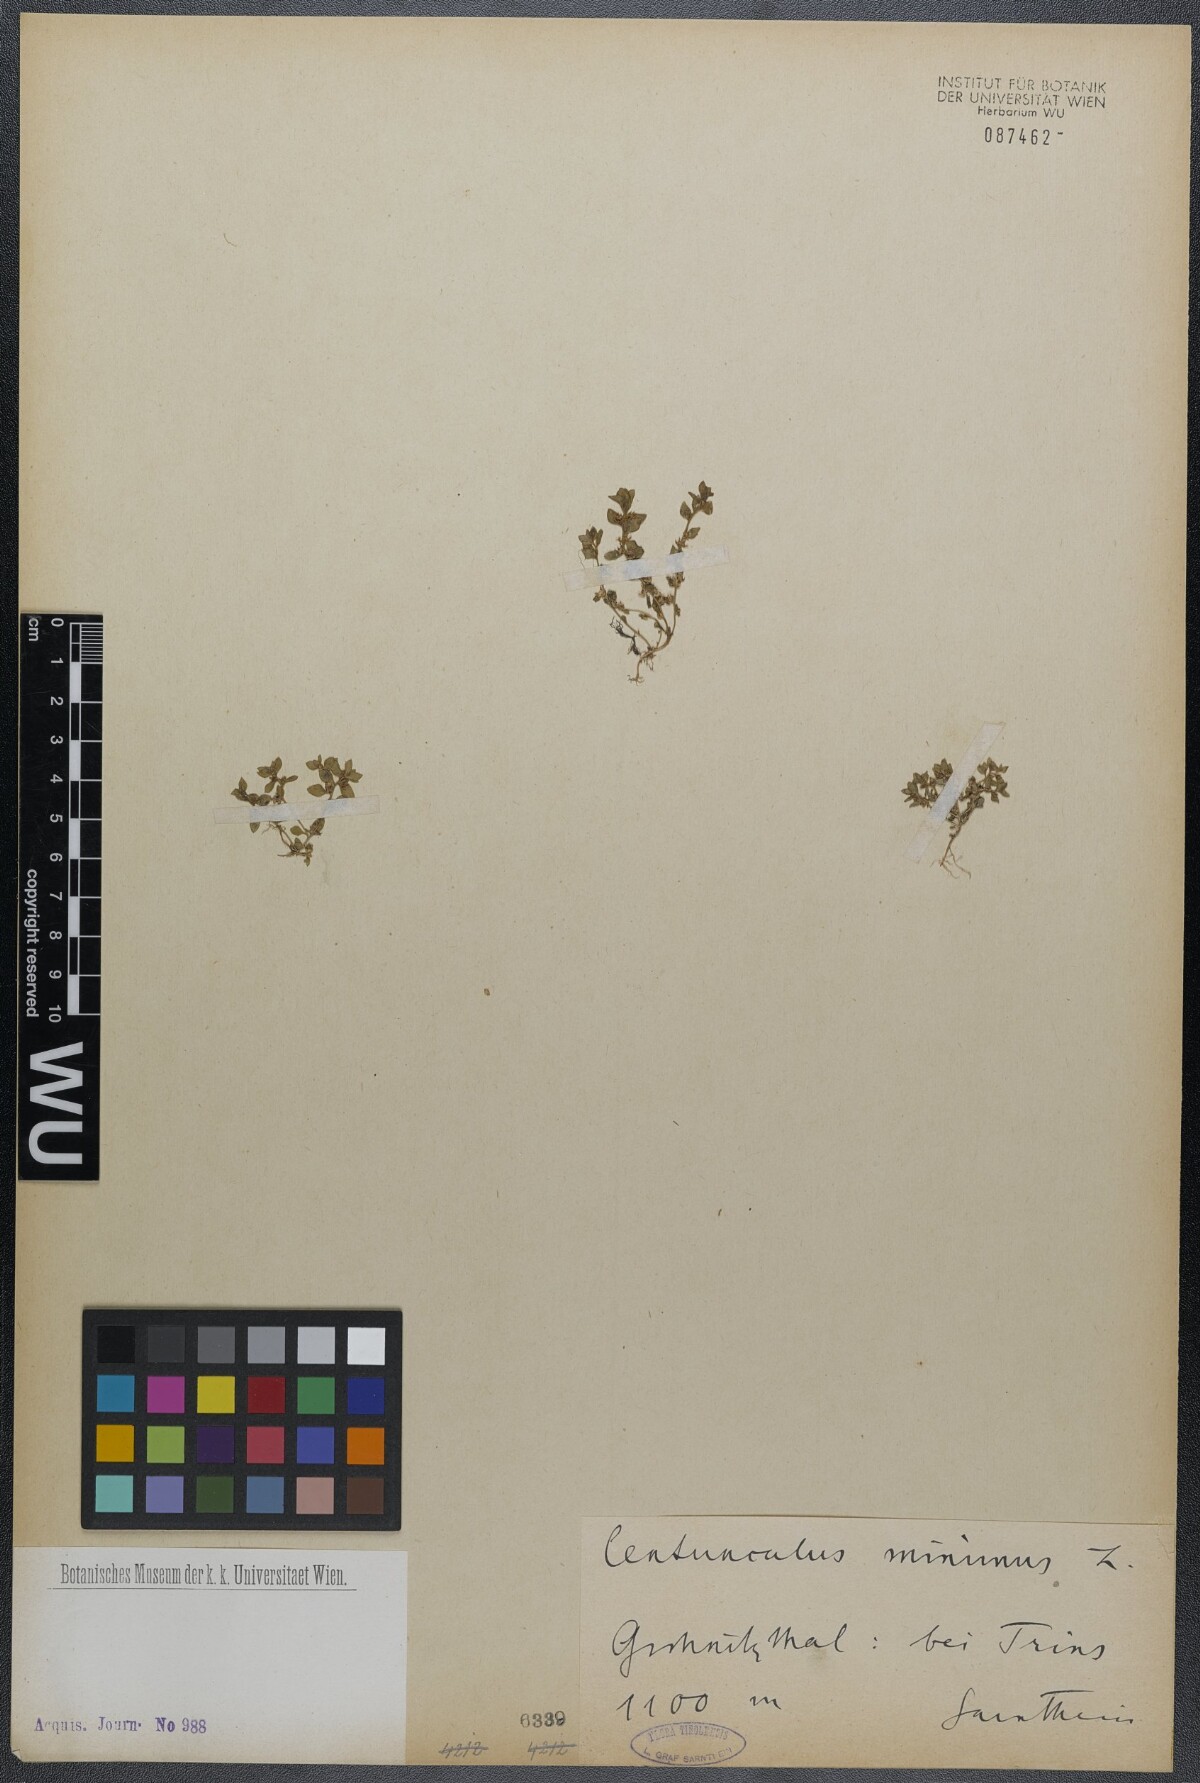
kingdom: Plantae
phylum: Tracheophyta
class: Magnoliopsida
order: Ericales
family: Primulaceae
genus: Lysimachia
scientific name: Lysimachia minima
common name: Chaffweed
